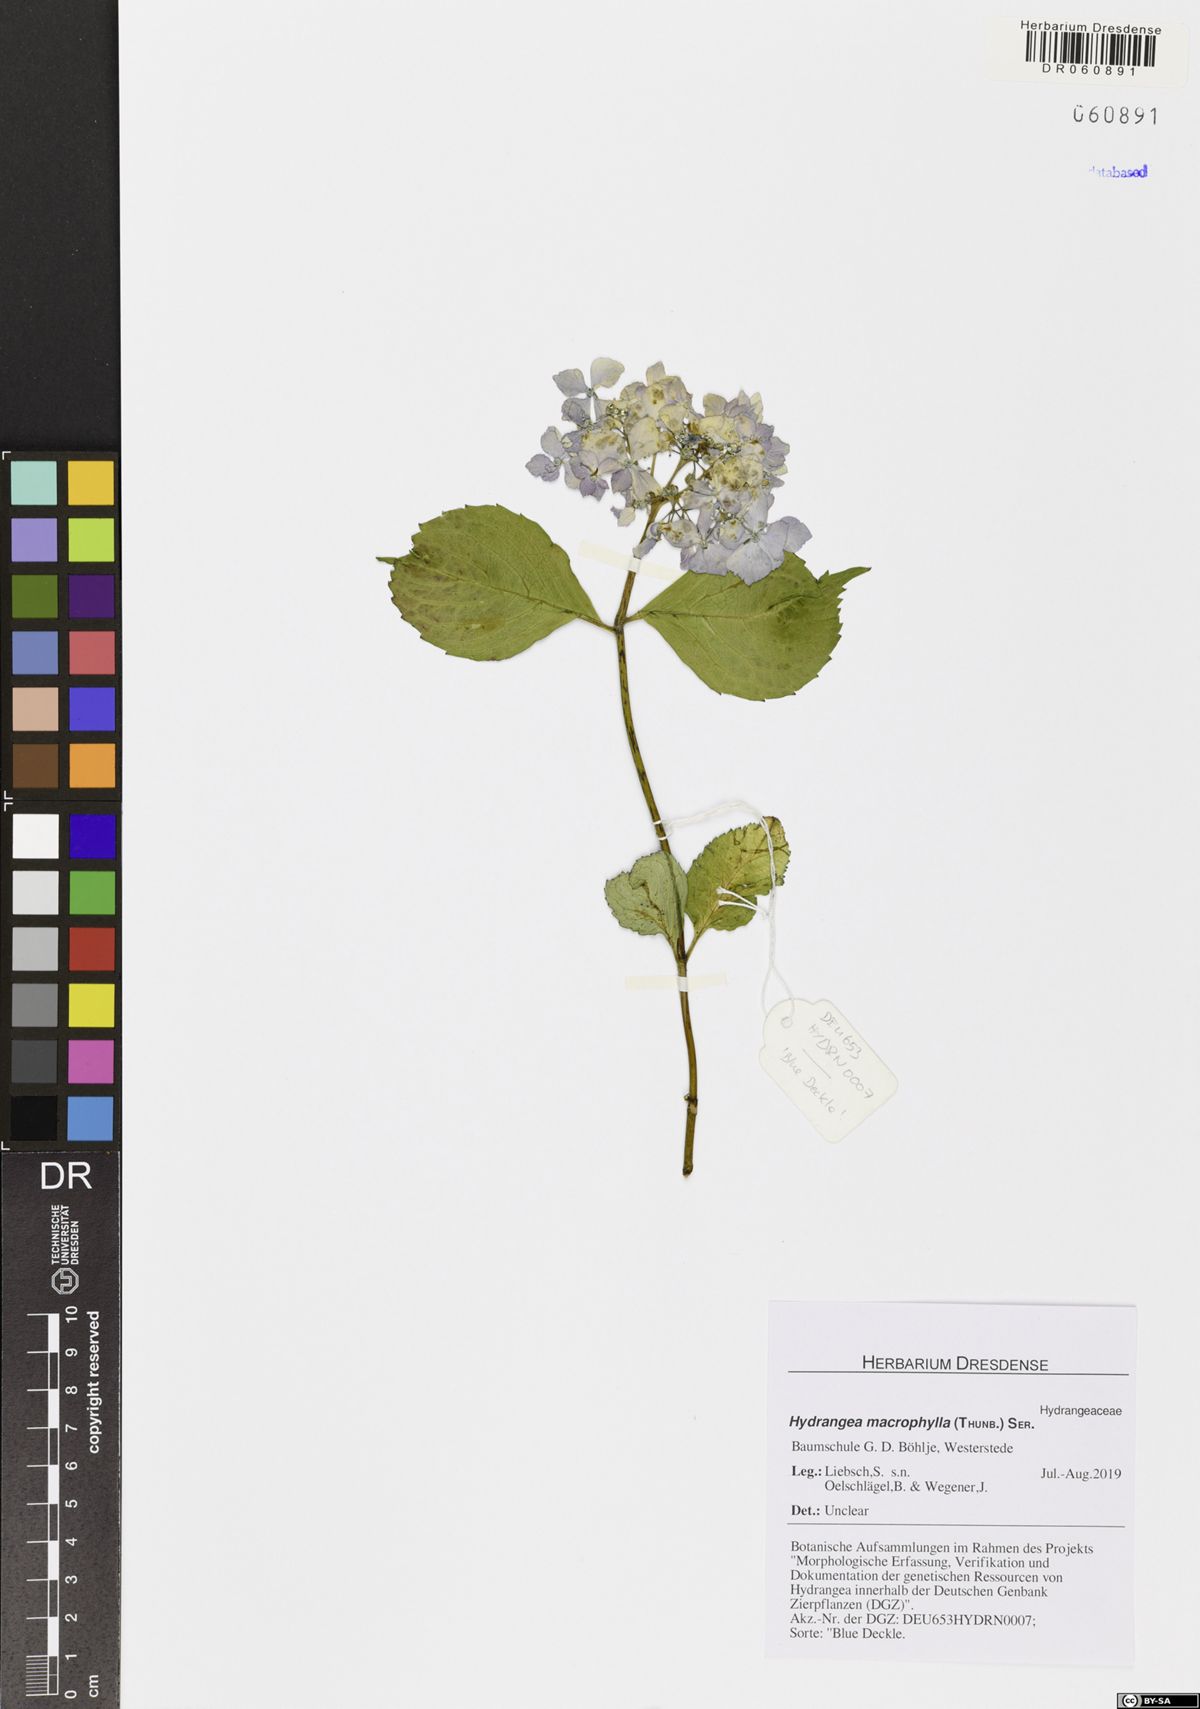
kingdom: Plantae
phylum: Tracheophyta
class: Magnoliopsida
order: Cornales
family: Hydrangeaceae
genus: Hydrangea
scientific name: Hydrangea macrophylla
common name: Hydrangea
